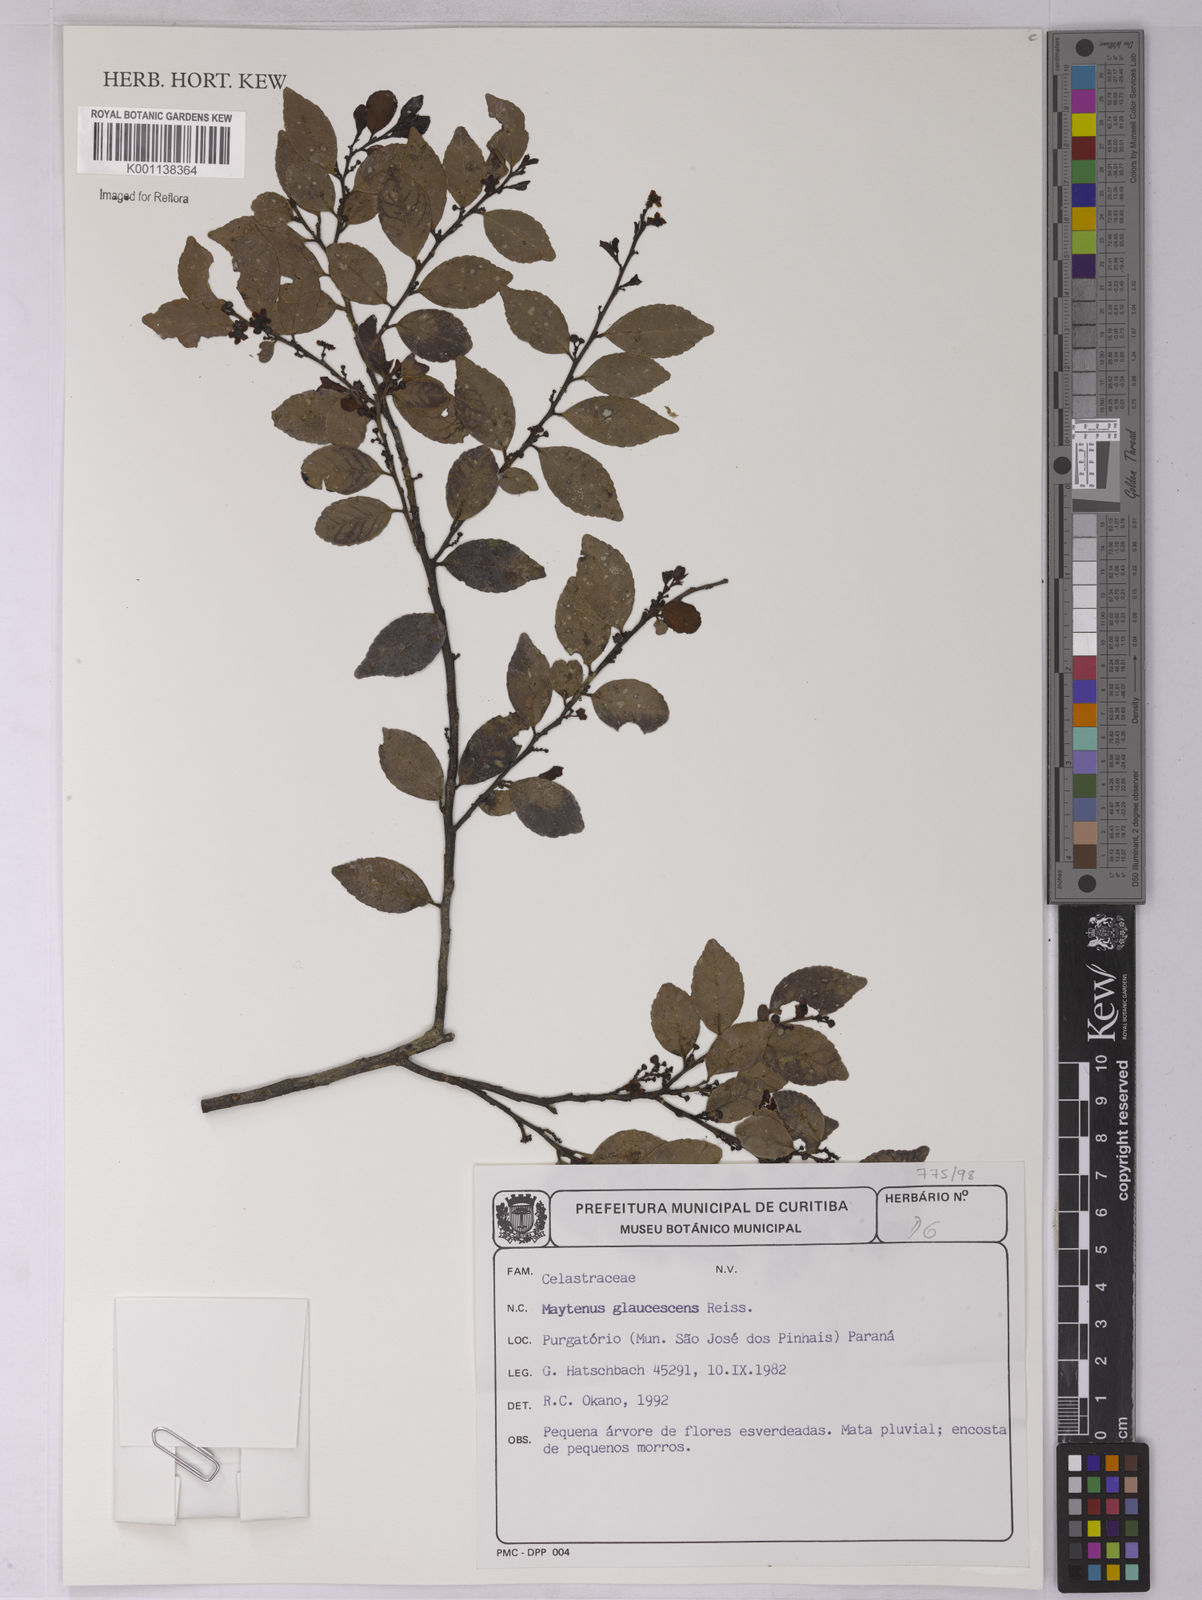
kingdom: Plantae
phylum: Tracheophyta
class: Magnoliopsida
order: Celastrales
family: Celastraceae
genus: Monteverdia
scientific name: Monteverdia glaucescens
